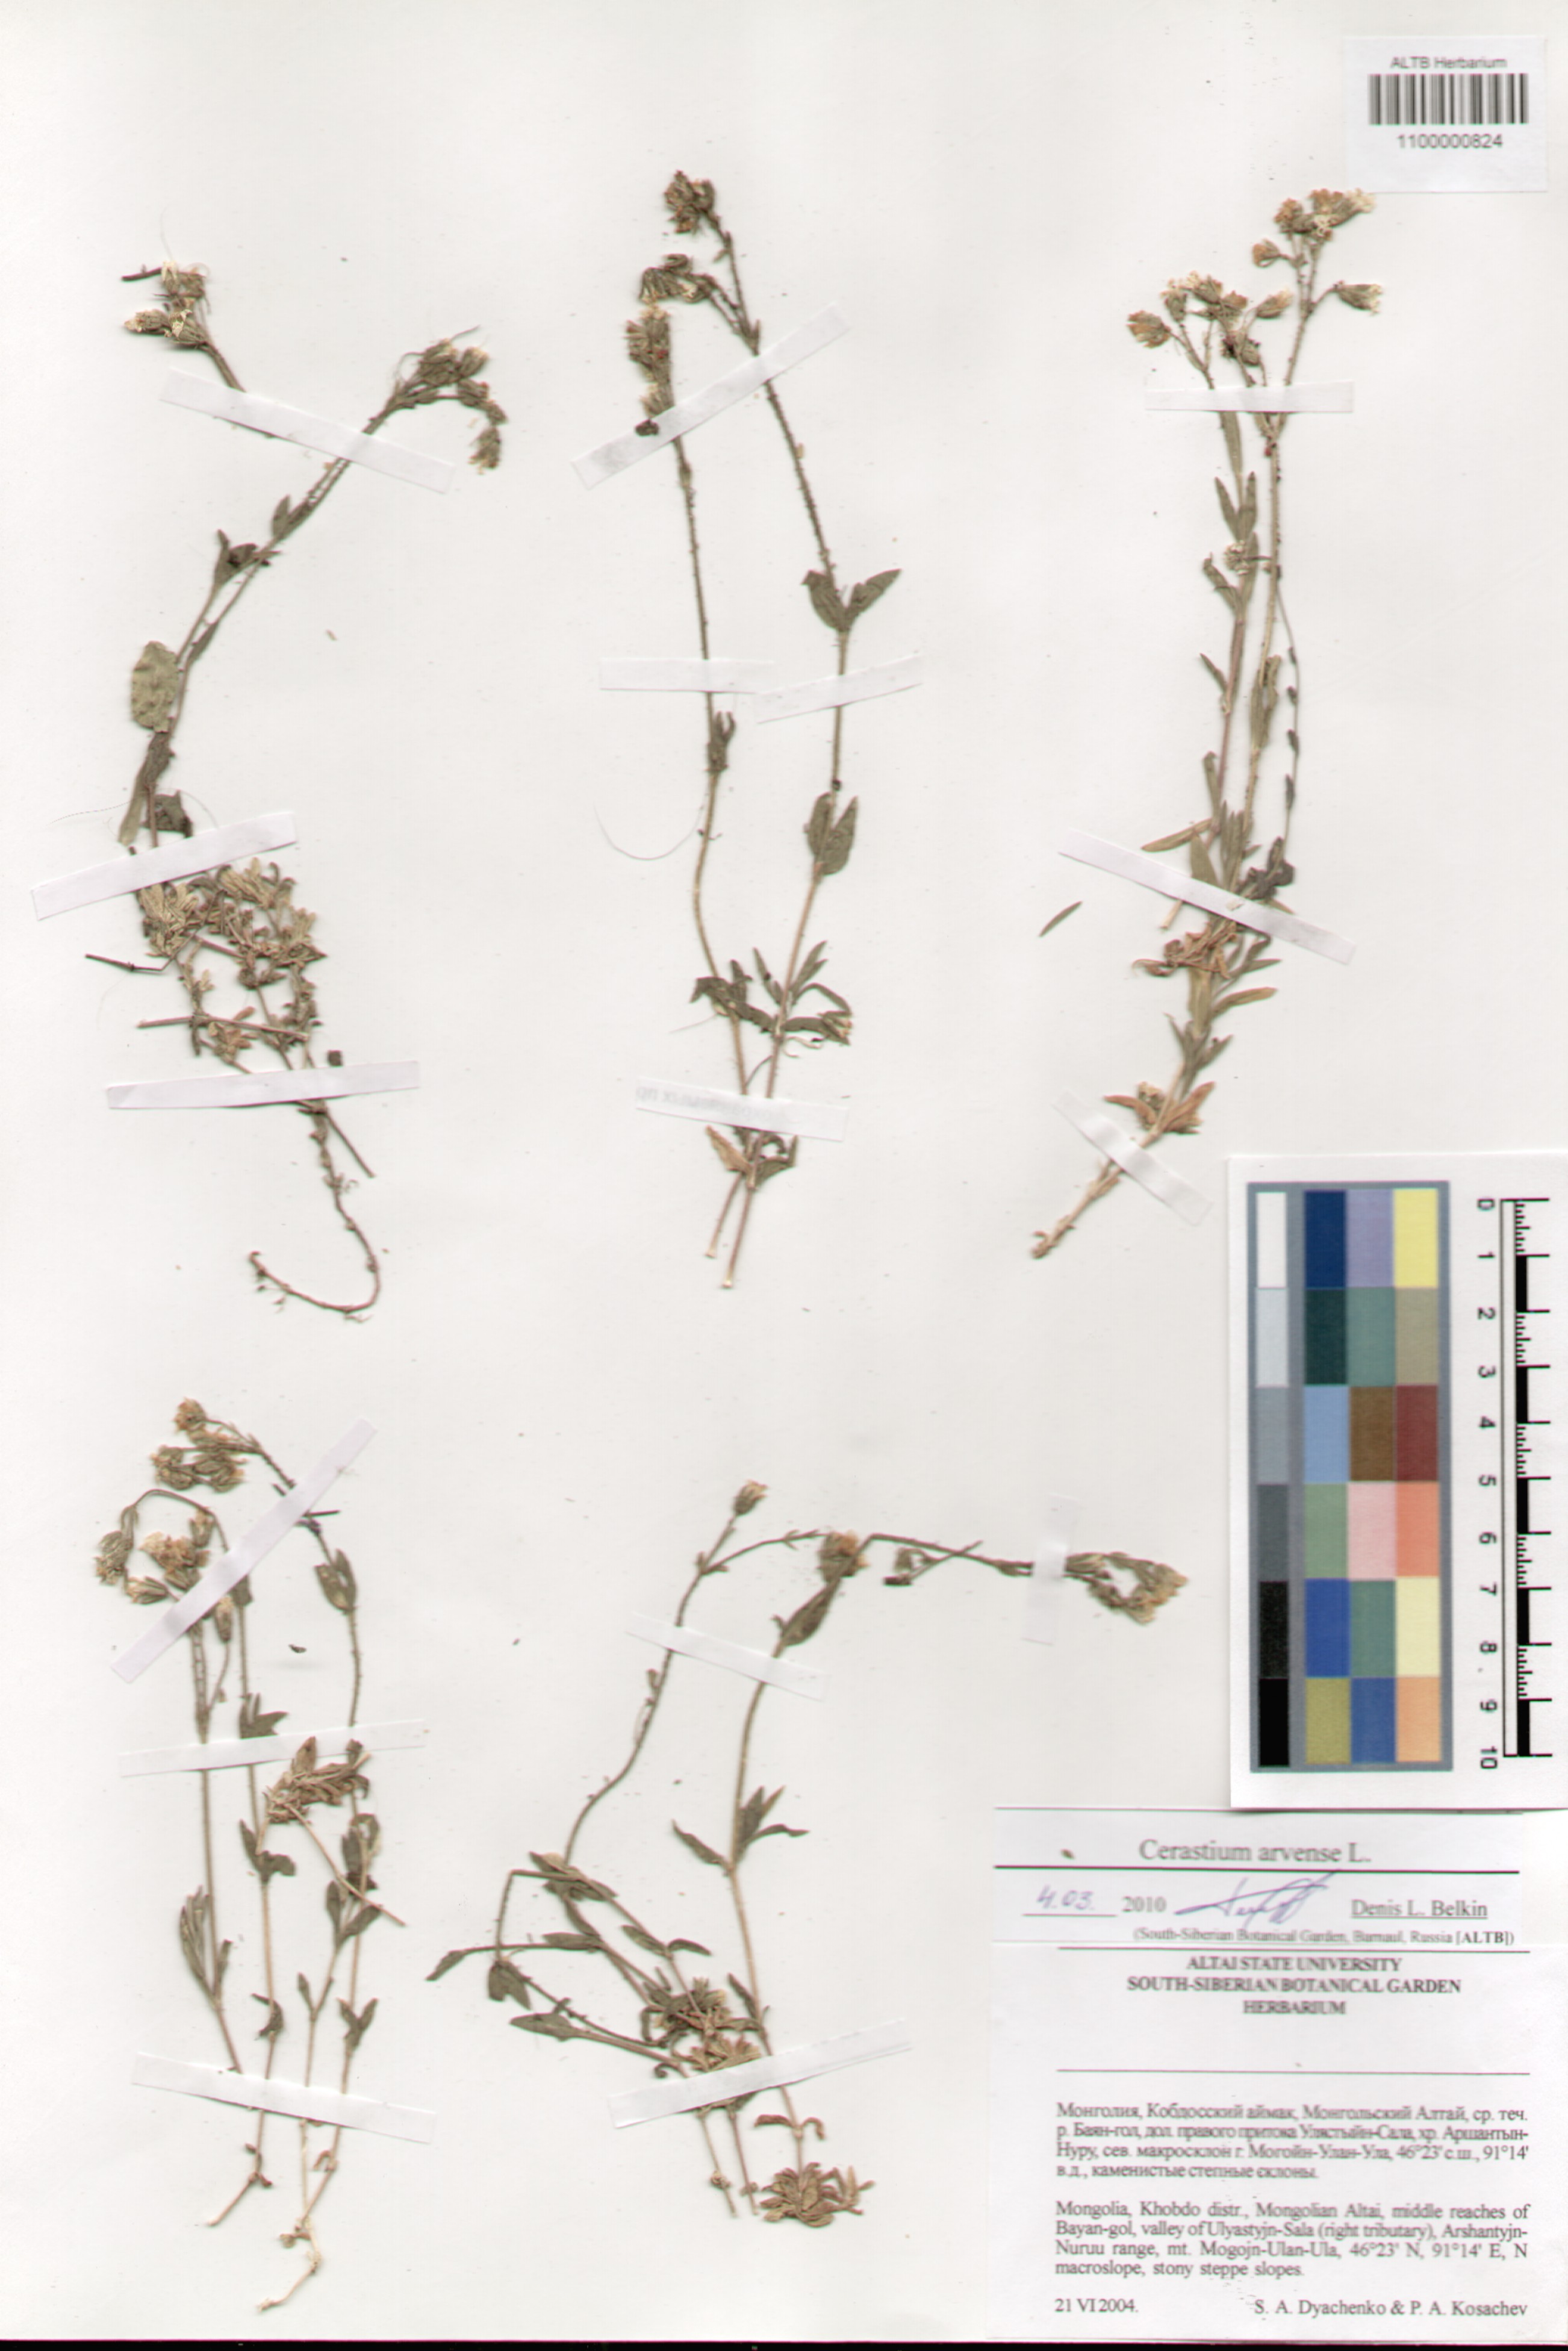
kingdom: Plantae
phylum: Tracheophyta
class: Magnoliopsida
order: Caryophyllales
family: Caryophyllaceae
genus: Cerastium
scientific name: Cerastium arvense
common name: Field mouse-ear
